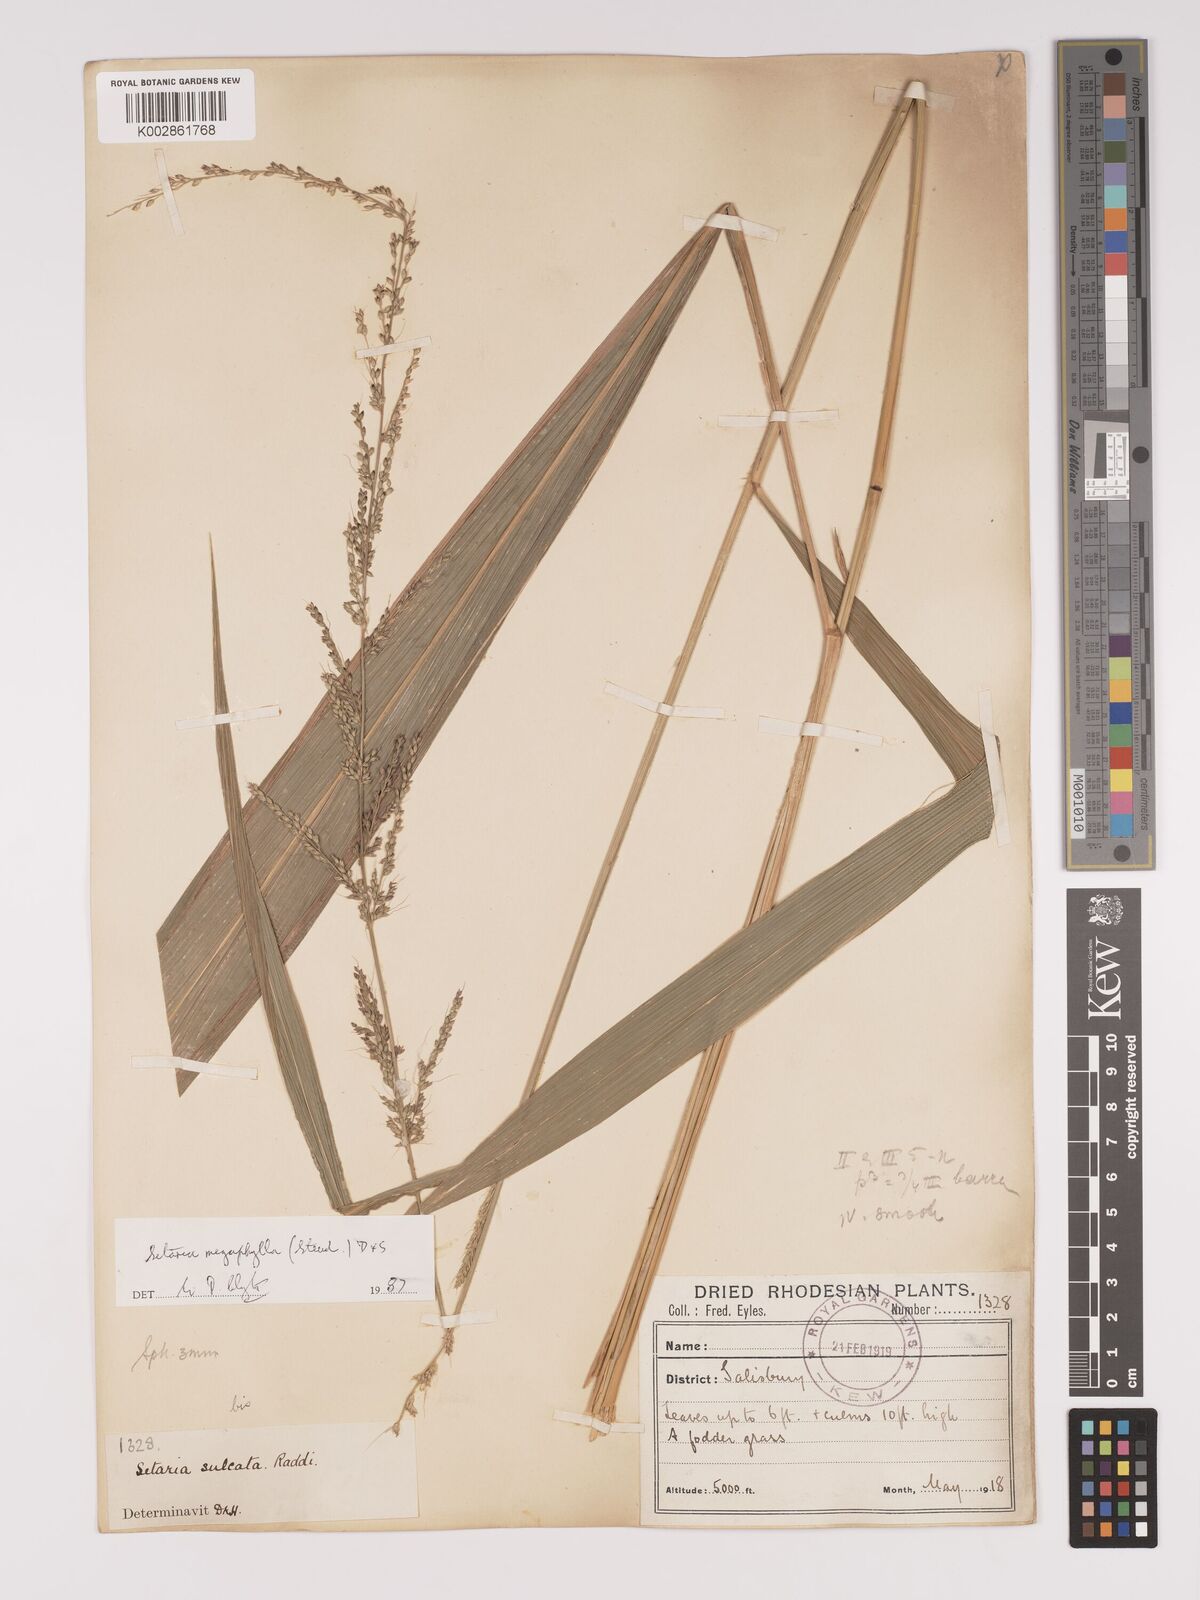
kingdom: Plantae
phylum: Tracheophyta
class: Liliopsida
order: Poales
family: Poaceae
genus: Setaria
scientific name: Setaria megaphylla
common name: Bigleaf bristlegrass
